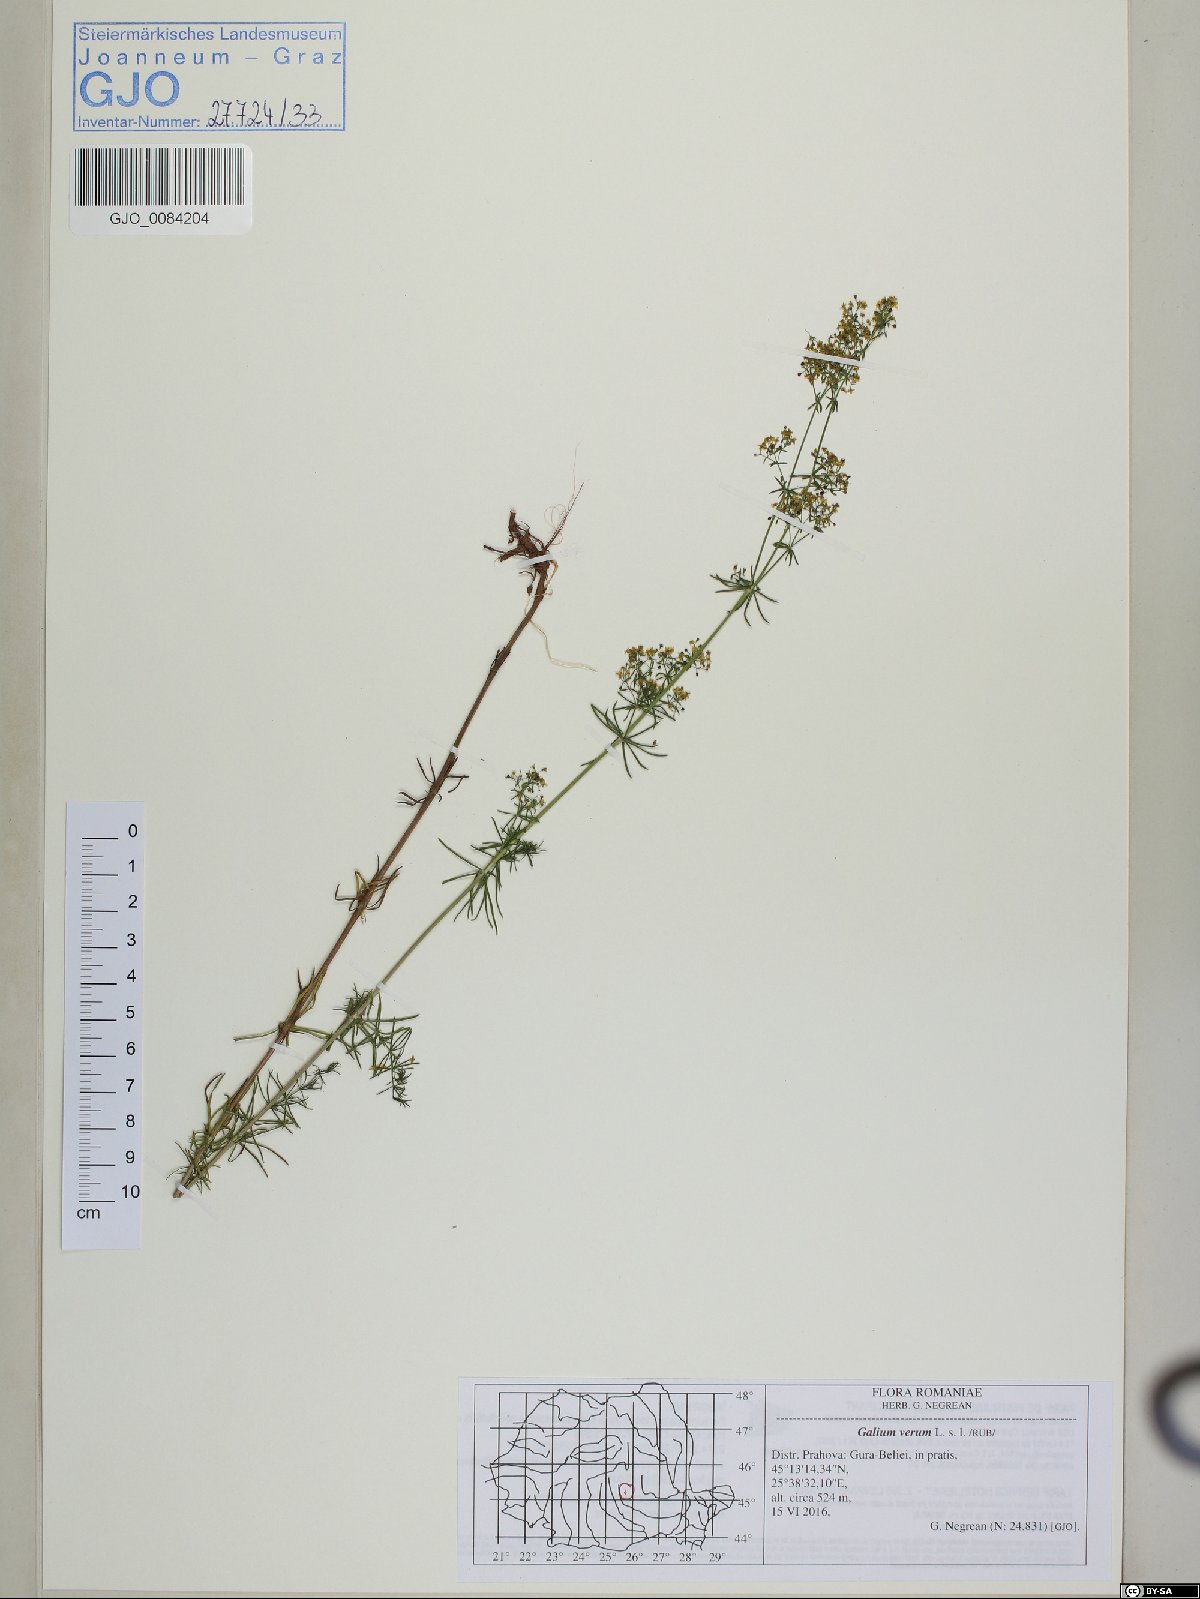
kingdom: Plantae
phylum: Tracheophyta
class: Magnoliopsida
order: Gentianales
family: Rubiaceae
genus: Galium
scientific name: Galium verum
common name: Lady's bedstraw
